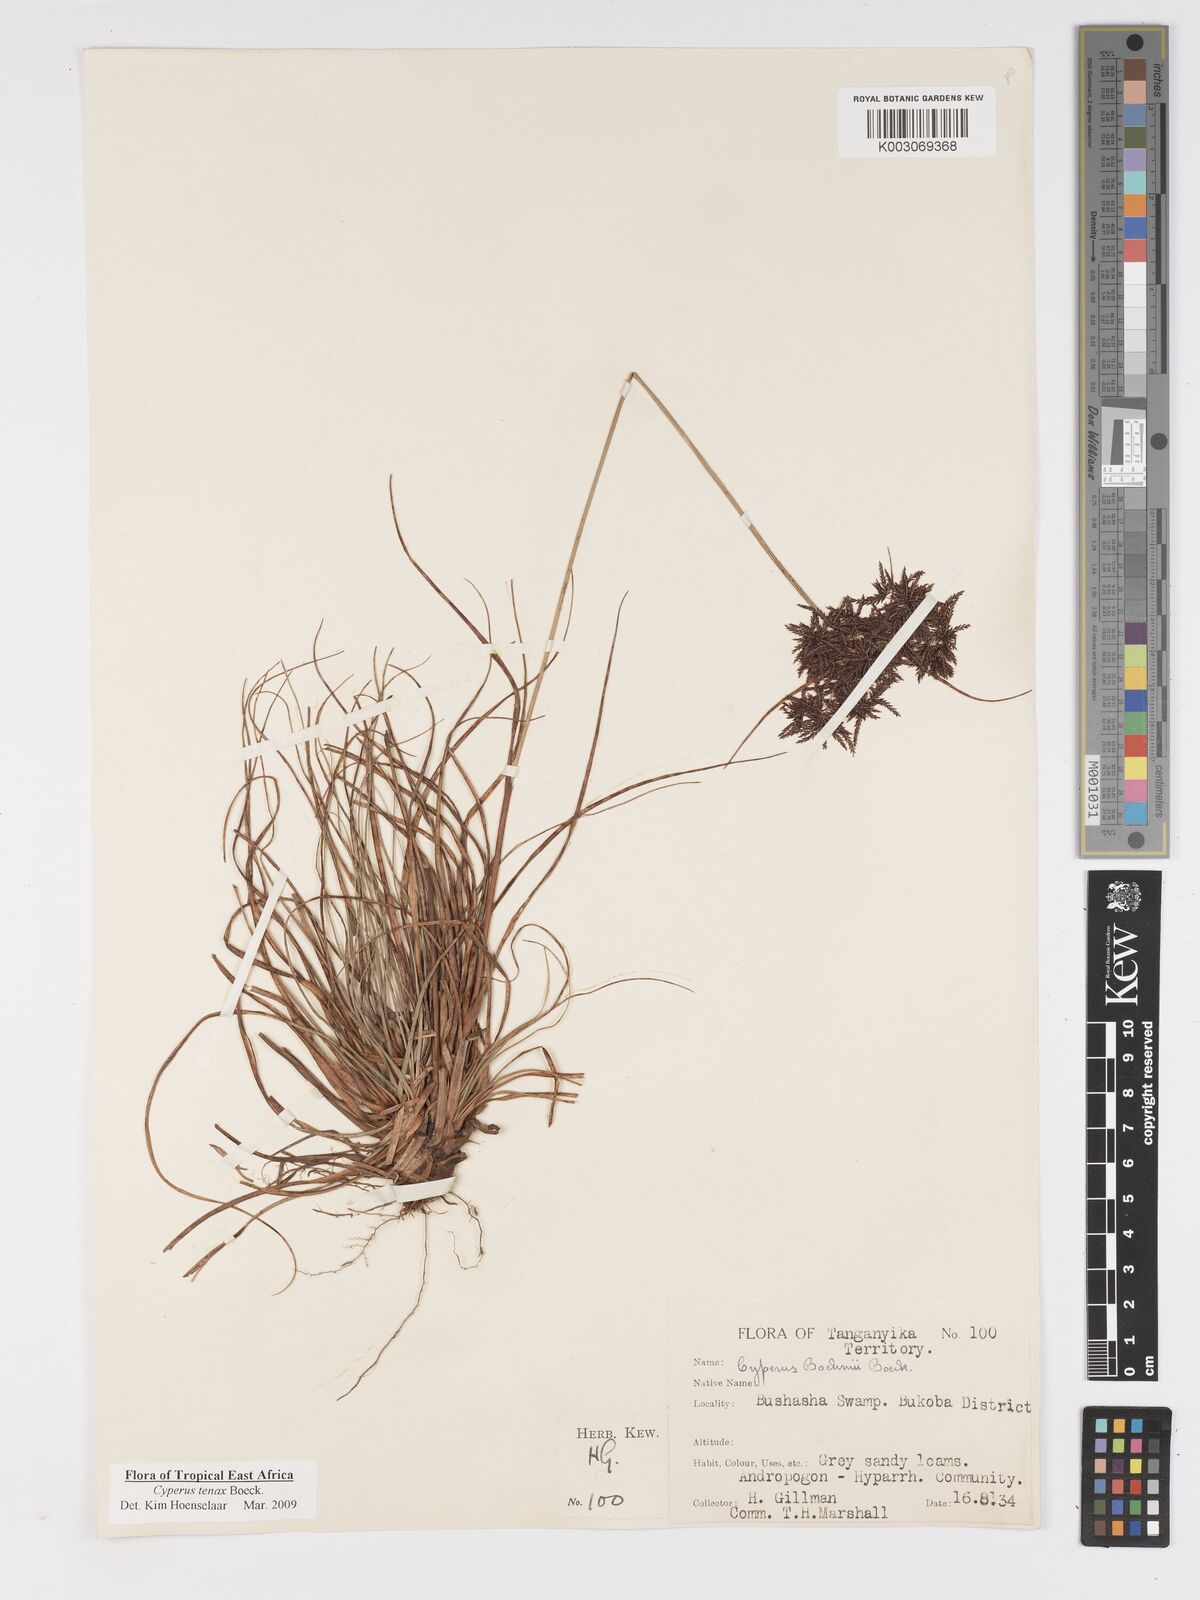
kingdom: Plantae
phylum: Tracheophyta
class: Liliopsida
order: Poales
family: Cyperaceae
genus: Cyperus
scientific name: Cyperus tenax
